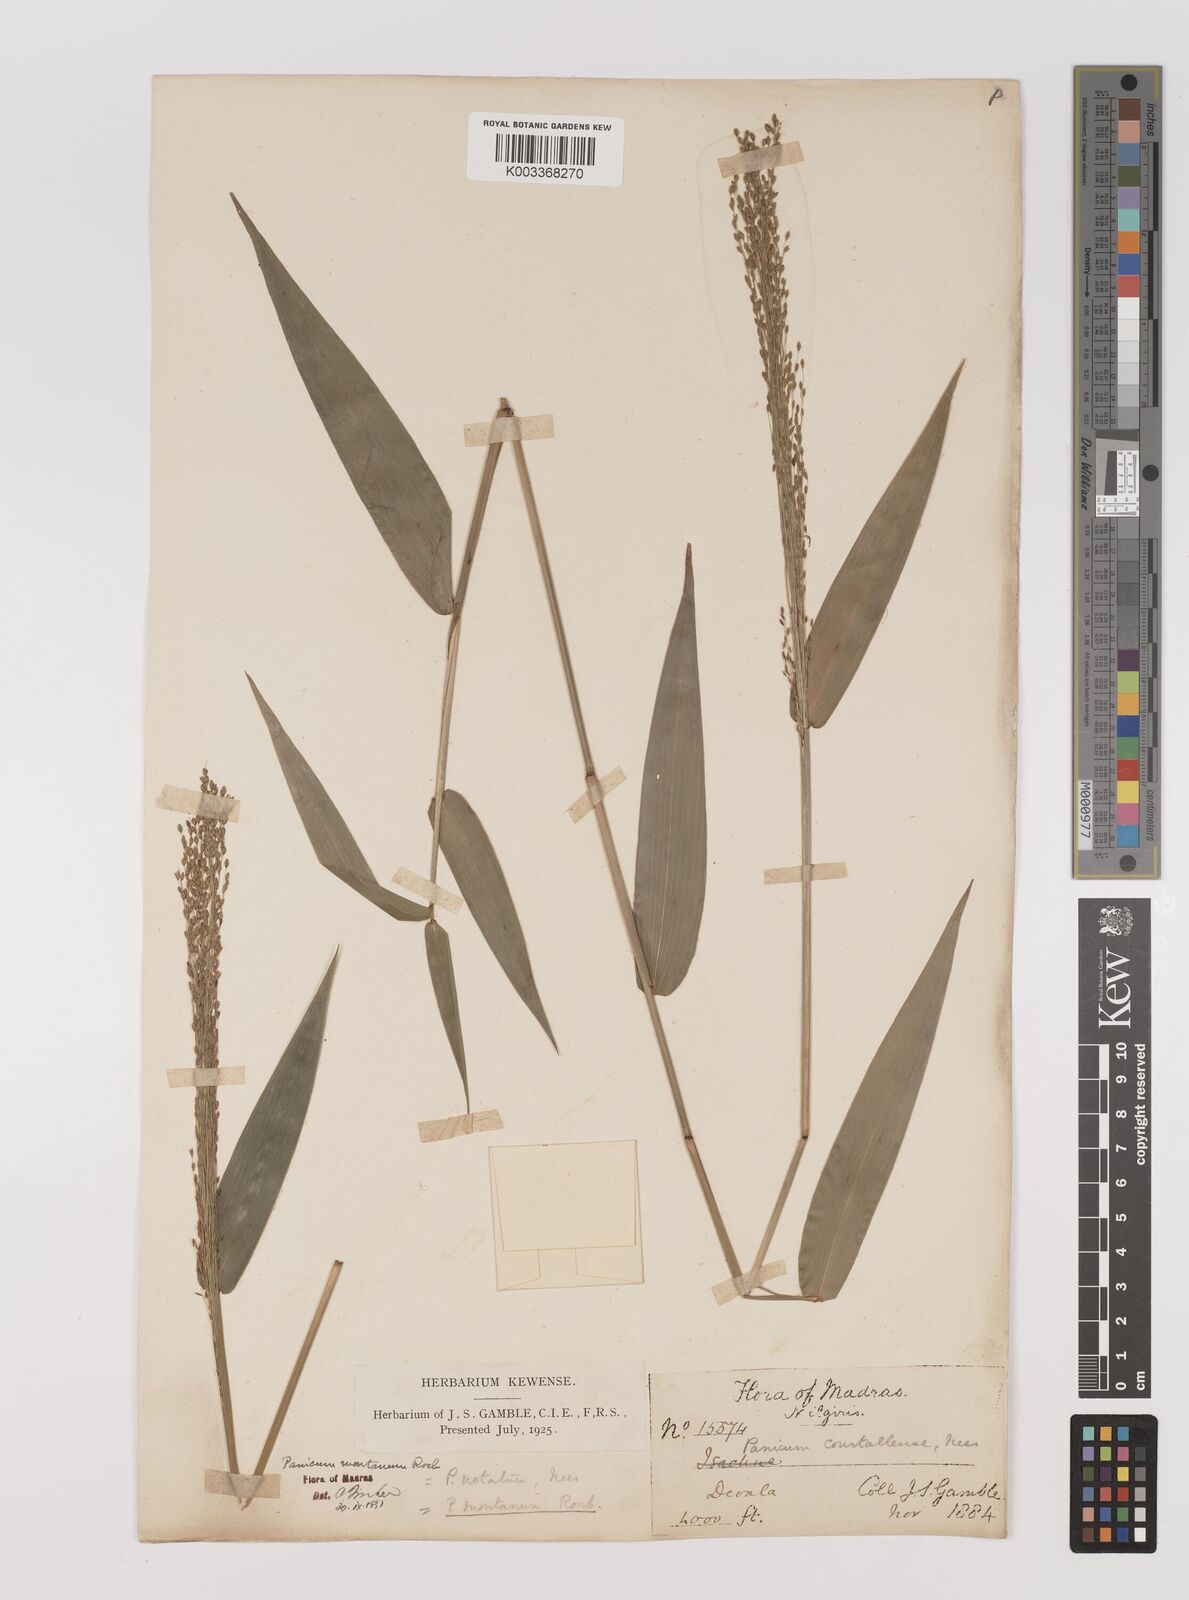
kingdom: Plantae
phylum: Tracheophyta
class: Liliopsida
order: Poales
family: Poaceae
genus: Panicum
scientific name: Panicum notatum
